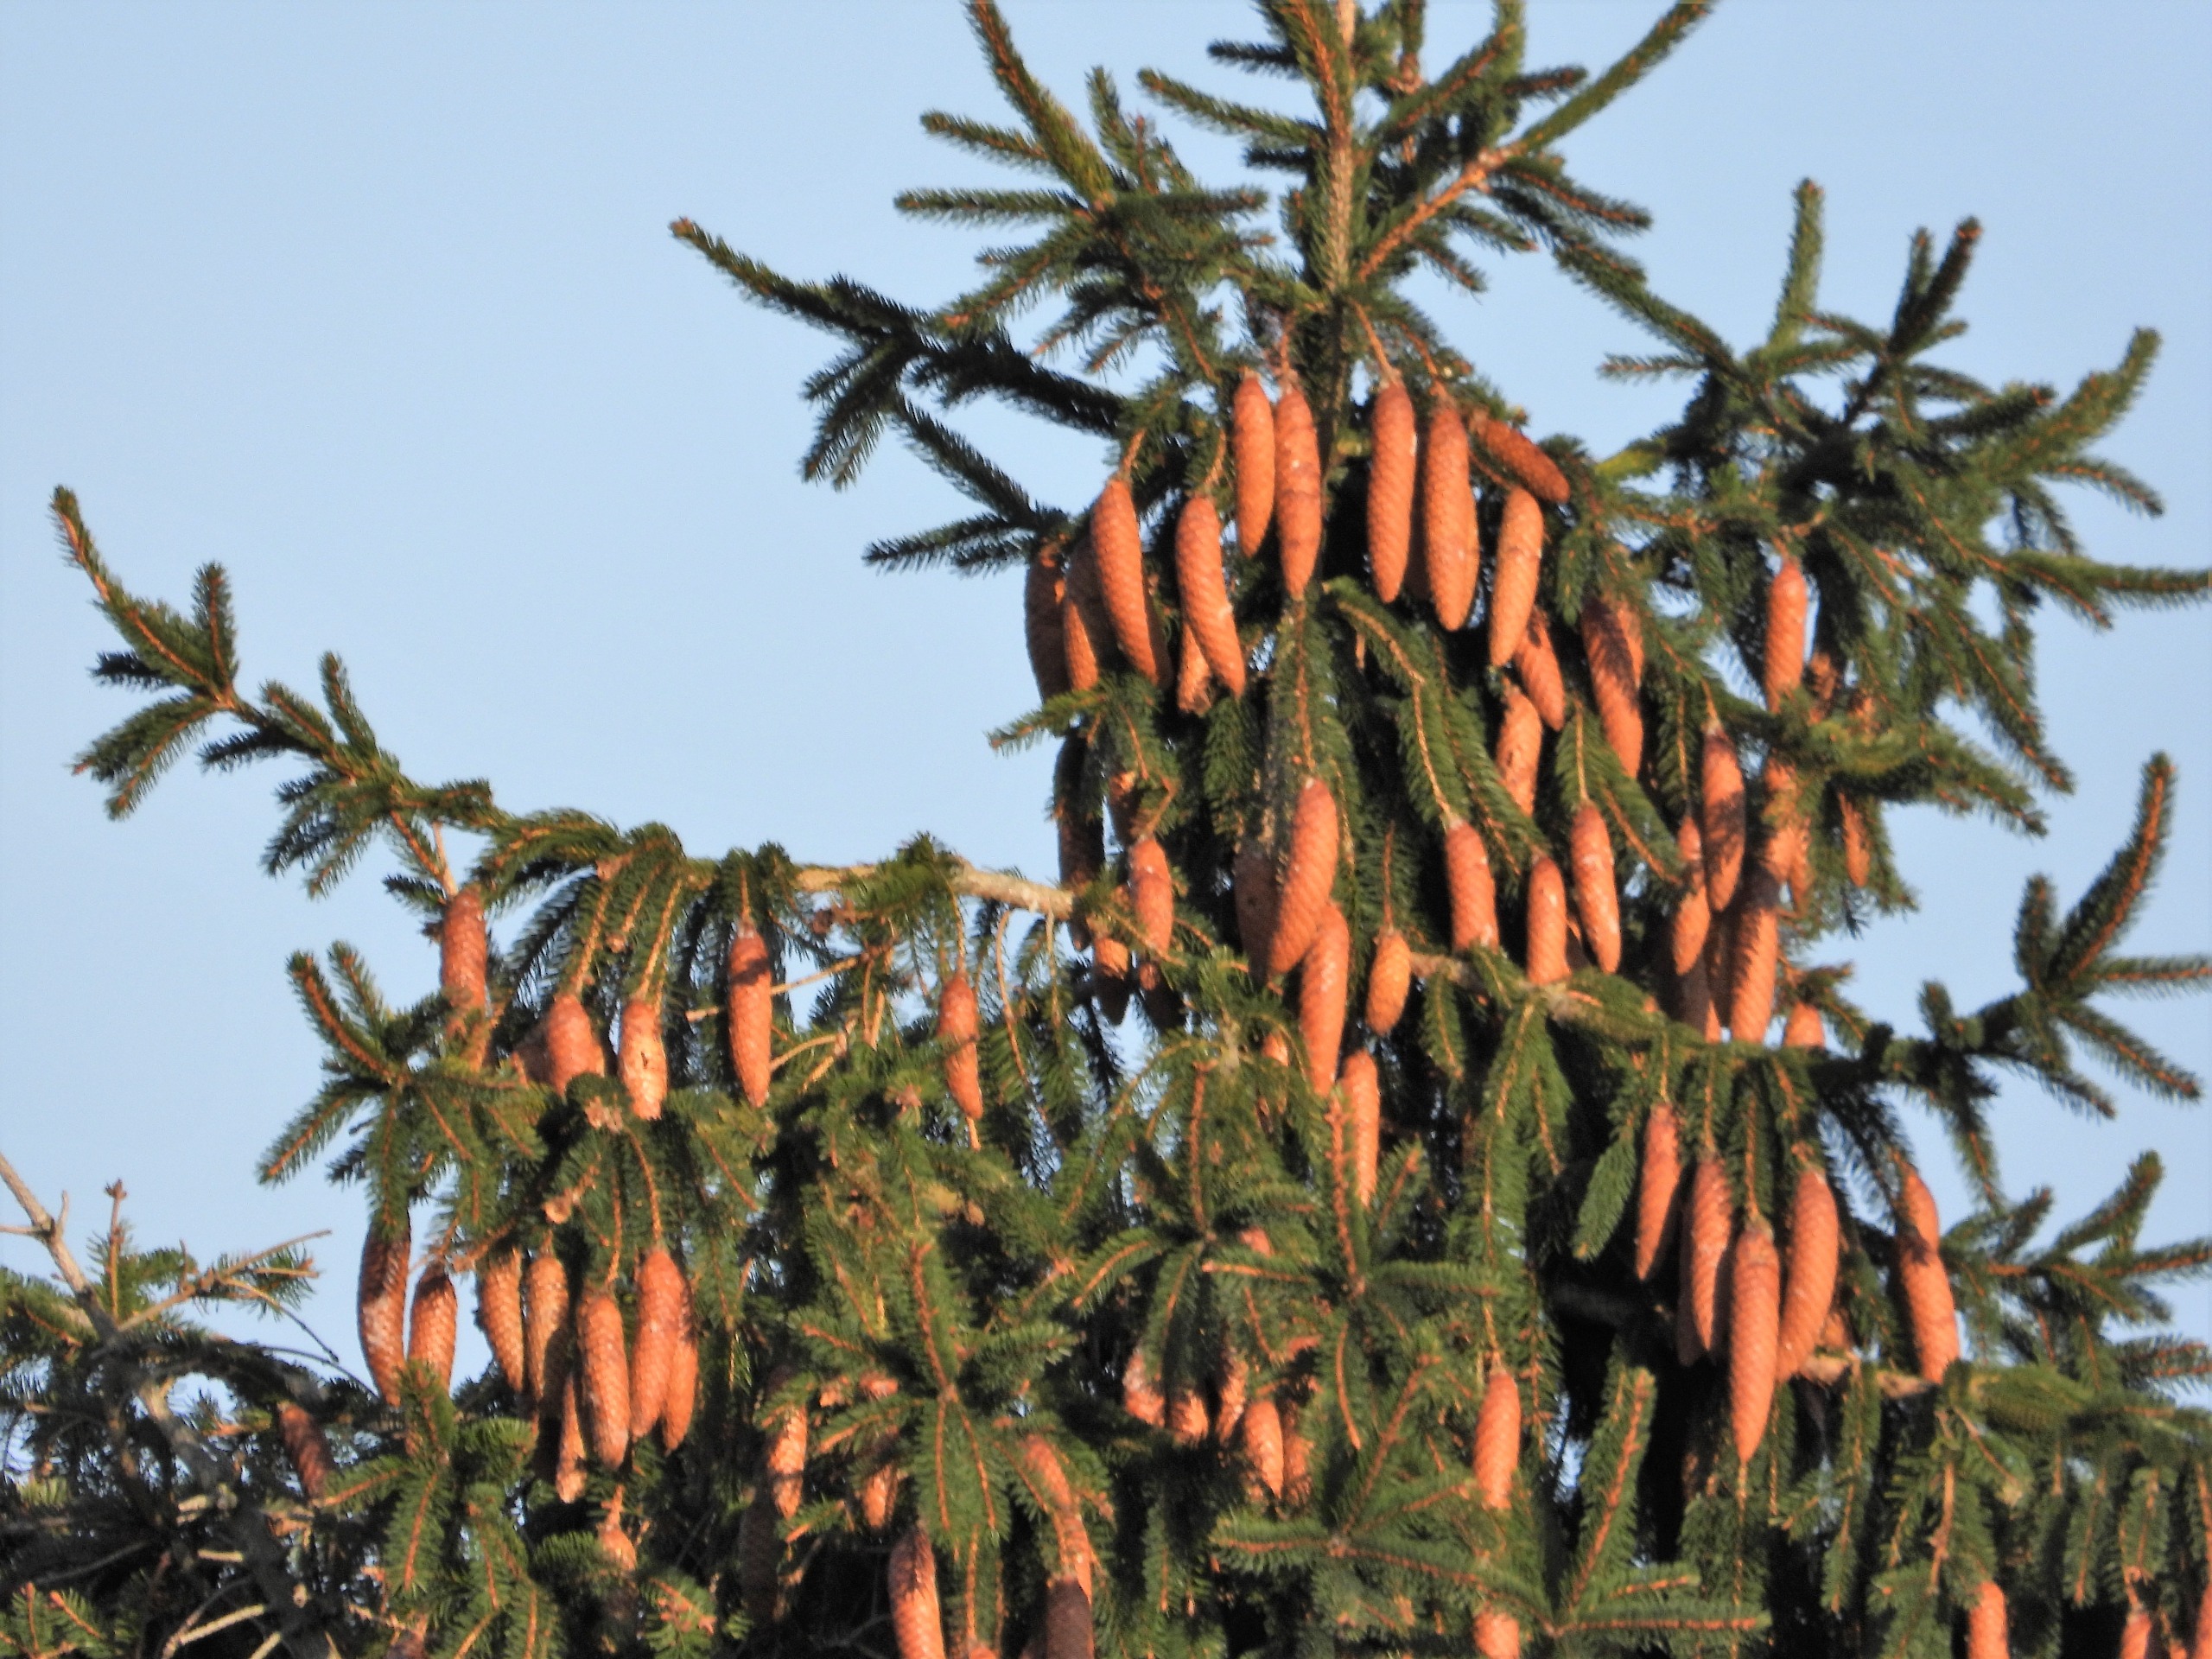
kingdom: Plantae
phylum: Tracheophyta
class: Pinopsida
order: Pinales
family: Pinaceae
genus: Picea
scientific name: Picea abies
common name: Rød-gran
